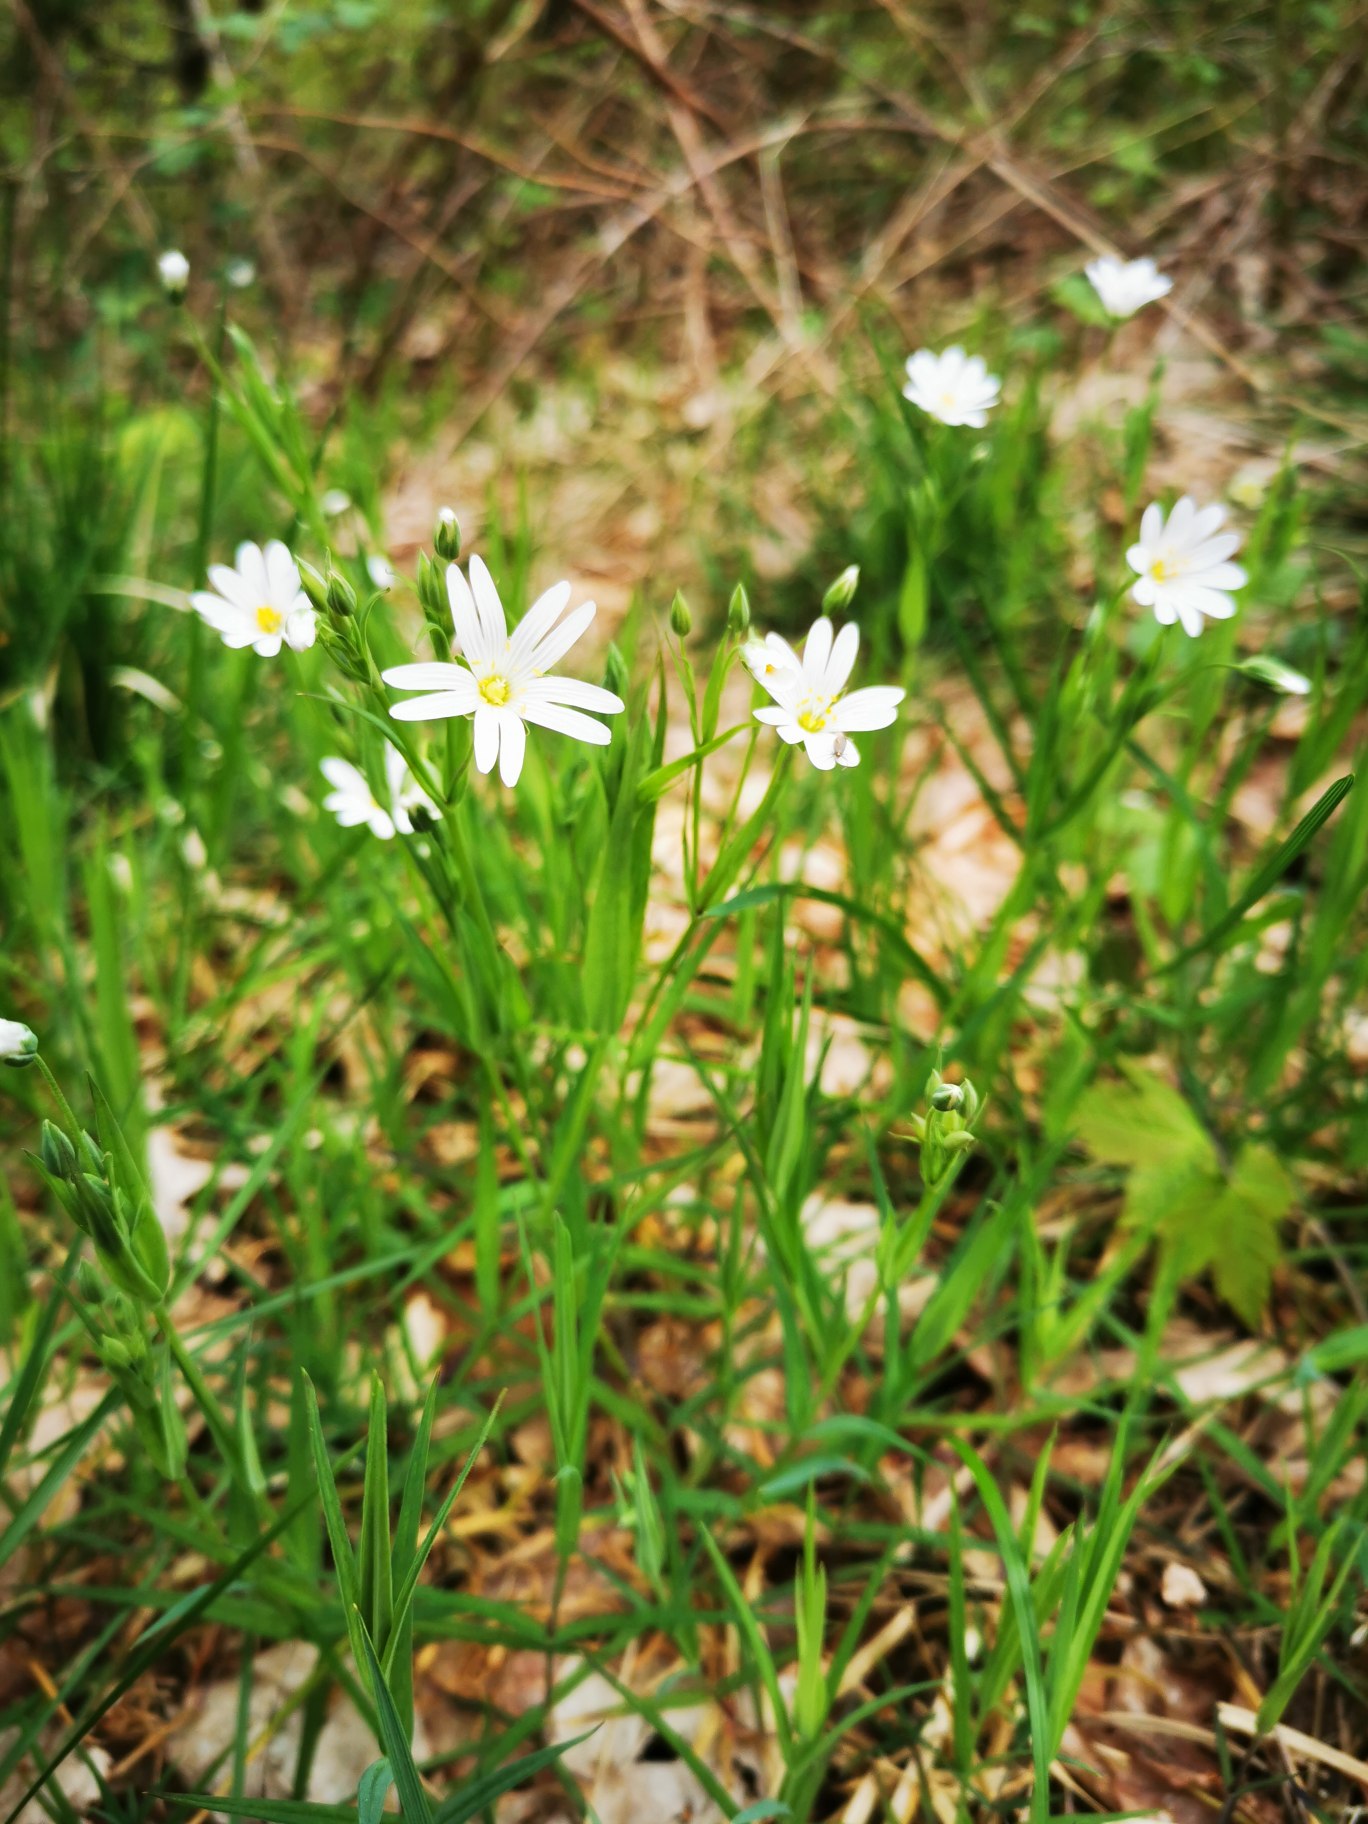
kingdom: Plantae
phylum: Tracheophyta
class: Magnoliopsida
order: Caryophyllales
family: Caryophyllaceae
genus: Rabelera
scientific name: Rabelera holostea
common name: Stor fladstjerne
